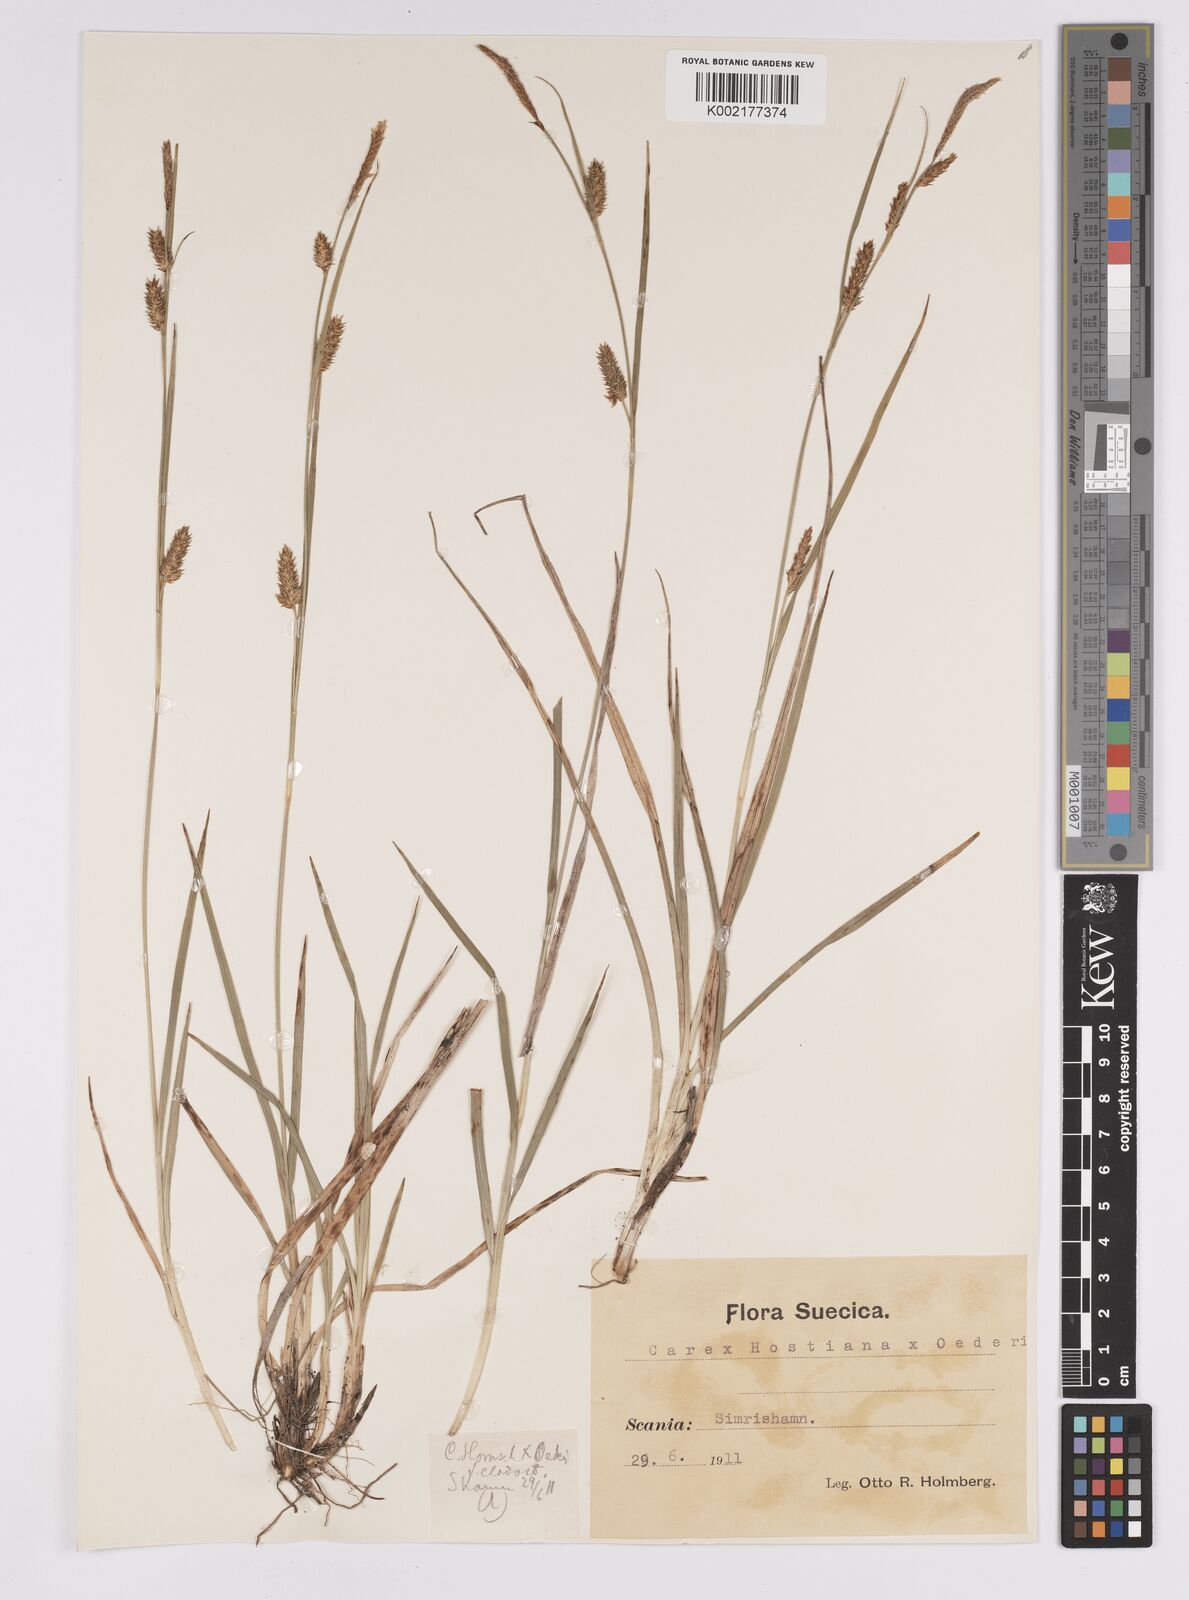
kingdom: Plantae
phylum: Tracheophyta
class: Liliopsida
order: Poales
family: Cyperaceae
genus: Carex
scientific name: Carex hostiana
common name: Tawny sedge
